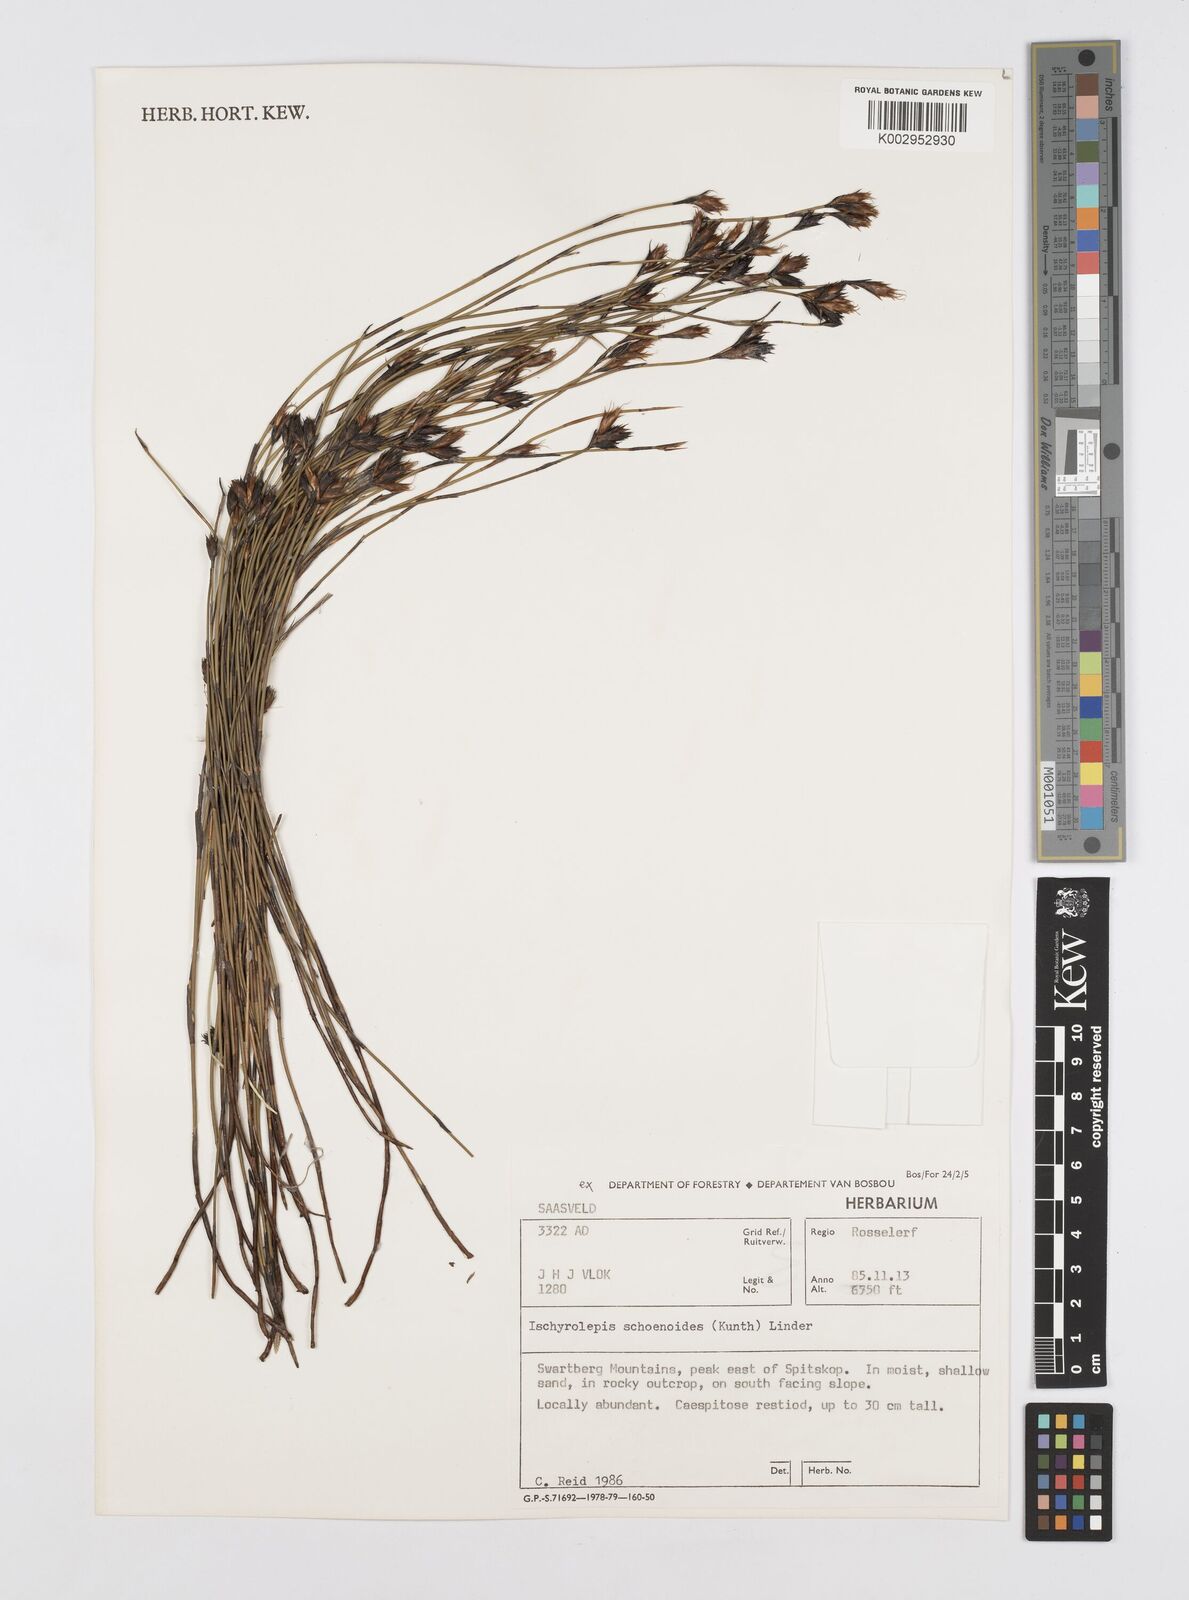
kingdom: Plantae
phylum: Tracheophyta
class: Liliopsida
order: Poales
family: Restionaceae
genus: Restio
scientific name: Restio schoenoides
